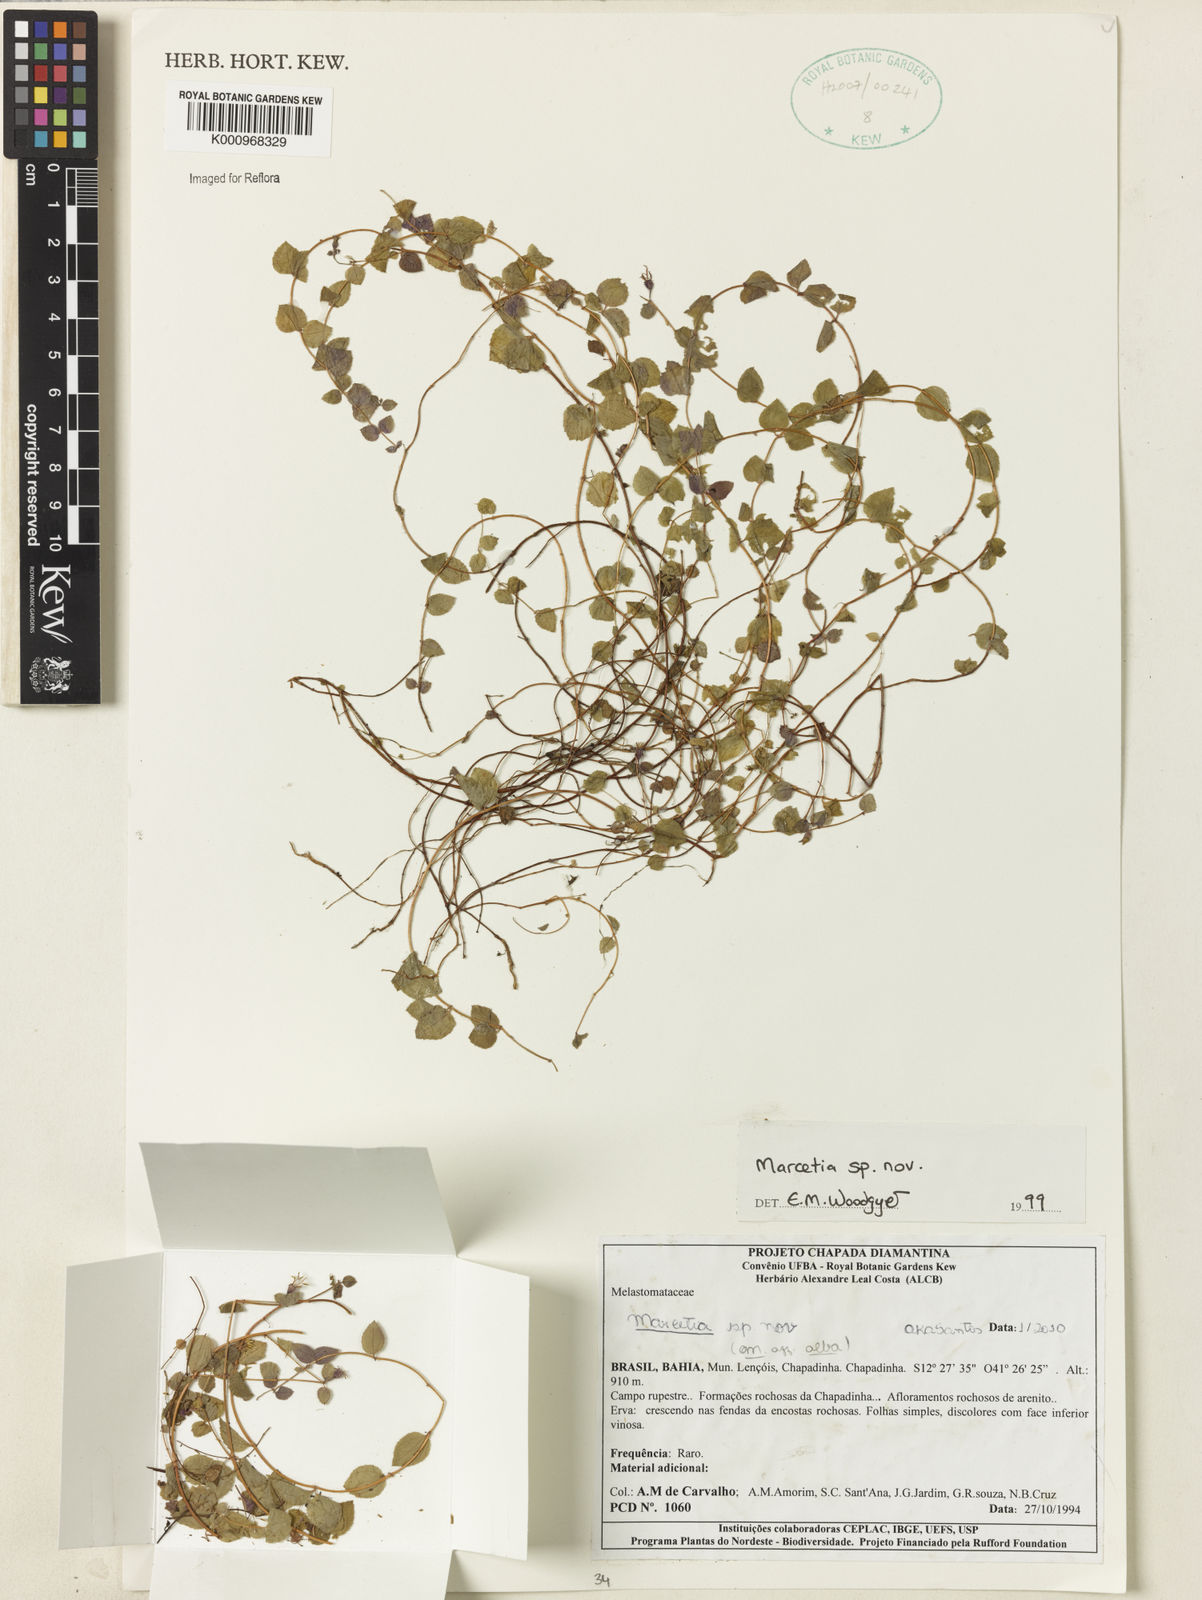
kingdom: Plantae
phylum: Tracheophyta
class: Magnoliopsida
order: Myrtales
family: Melastomataceae
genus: Marcetia
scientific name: Marcetia alba
